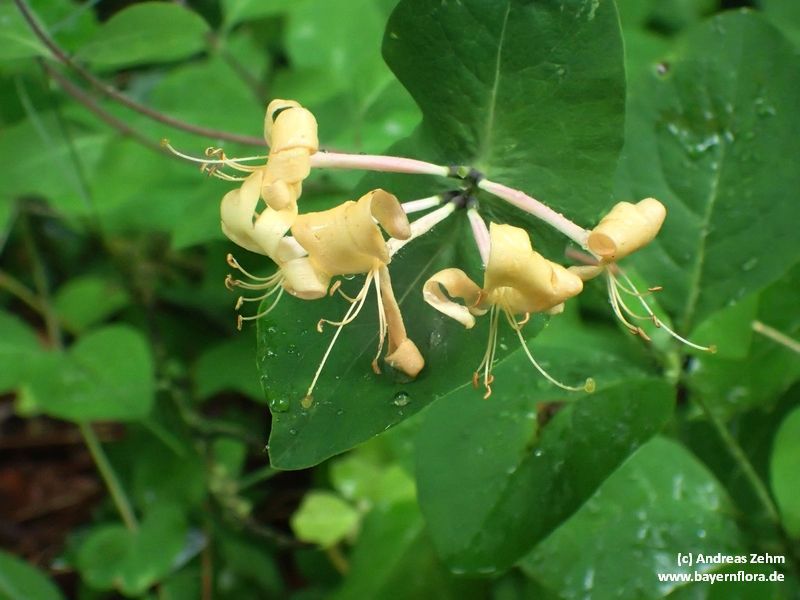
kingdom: Plantae
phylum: Tracheophyta
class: Magnoliopsida
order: Dipsacales
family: Caprifoliaceae
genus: Lonicera
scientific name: Lonicera caprifolium
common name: Perfoliate honeysuckle
